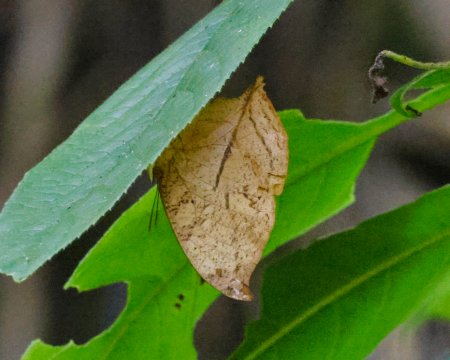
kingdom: Animalia
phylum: Arthropoda
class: Insecta
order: Lepidoptera
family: Nymphalidae
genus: Zaretis
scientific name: Zaretis itys
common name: Seasonal Leafwing
